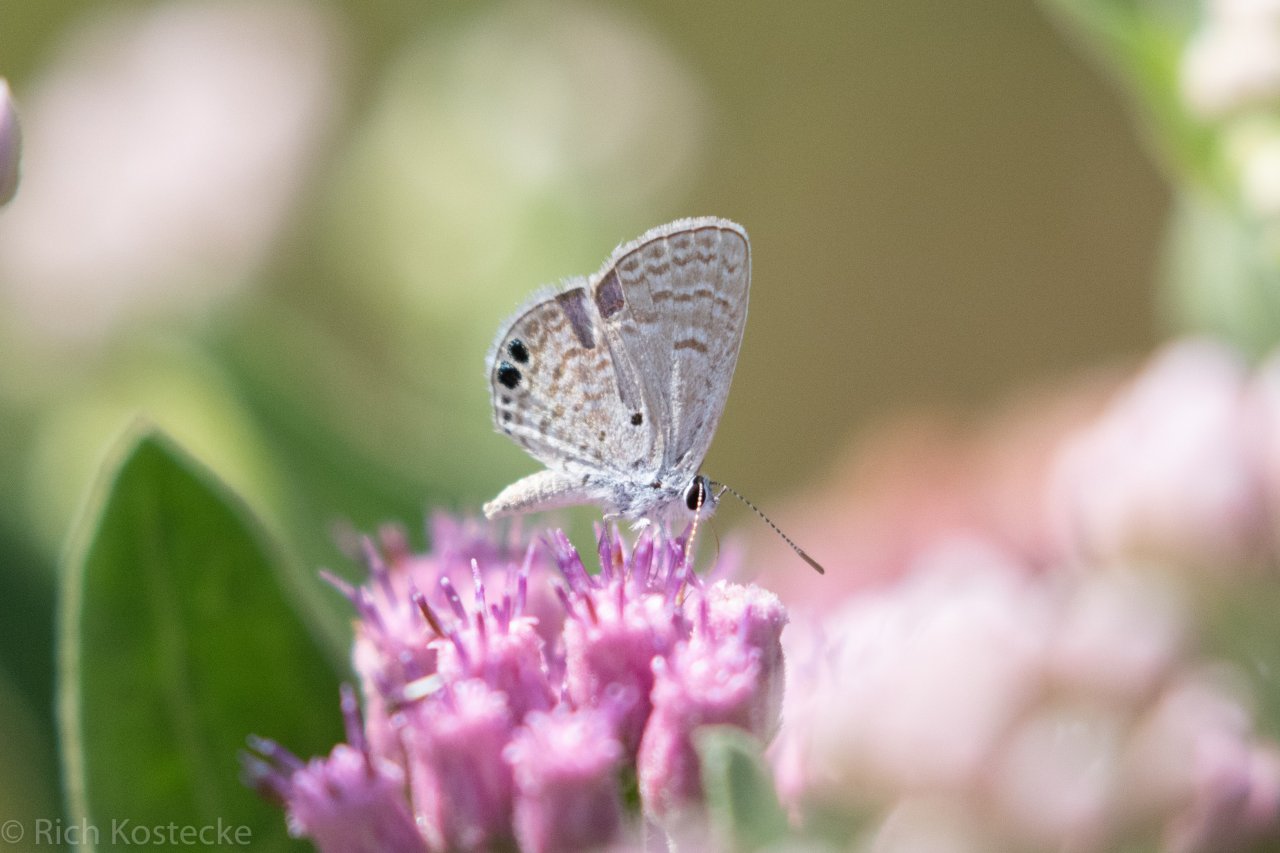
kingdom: Animalia
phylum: Arthropoda
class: Insecta
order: Lepidoptera
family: Lycaenidae
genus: Hemiargus
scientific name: Hemiargus ceraunus
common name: Ceraunus Blue
